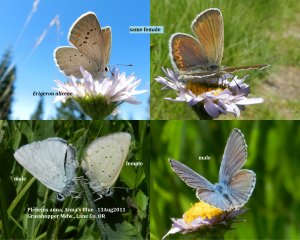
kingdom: Animalia
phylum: Arthropoda
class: Insecta
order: Lepidoptera
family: Lycaenidae
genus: Lycaeides
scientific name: Lycaeides anna
